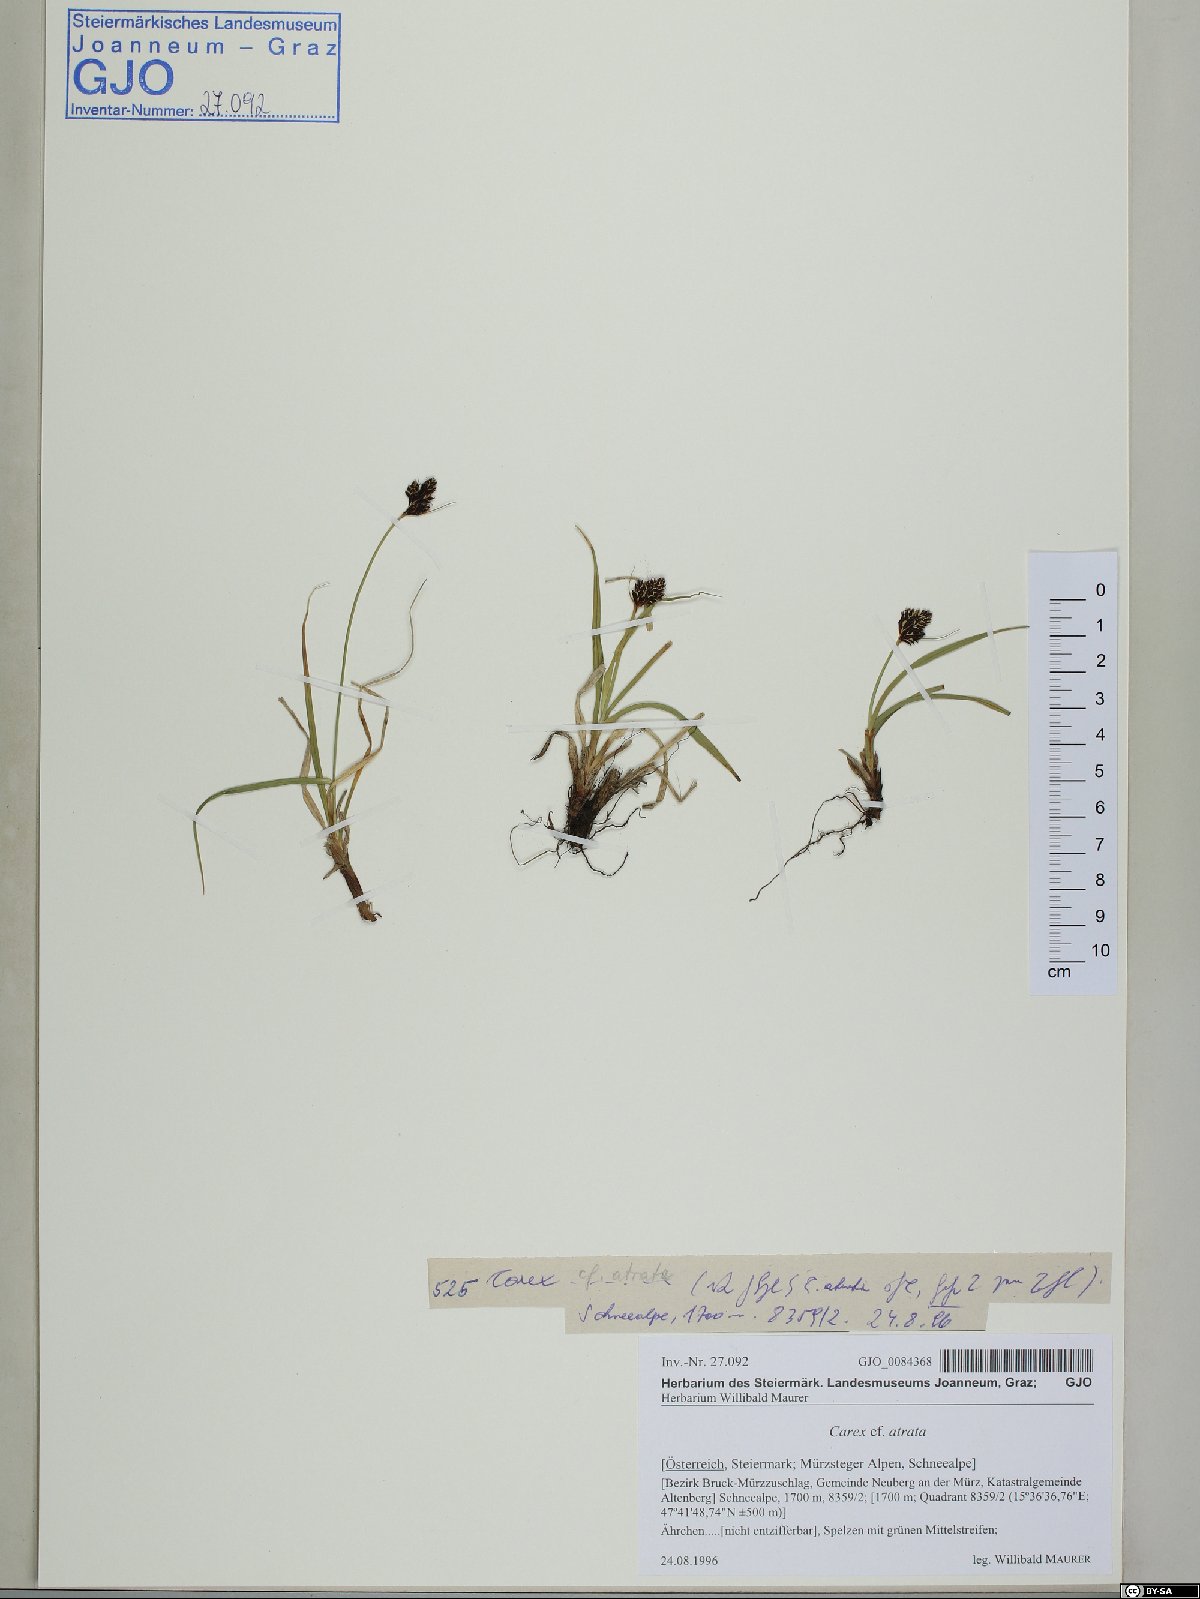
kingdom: Plantae
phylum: Tracheophyta
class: Liliopsida
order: Poales
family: Cyperaceae
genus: Carex
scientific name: Carex atrata
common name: Black alpine sedge
